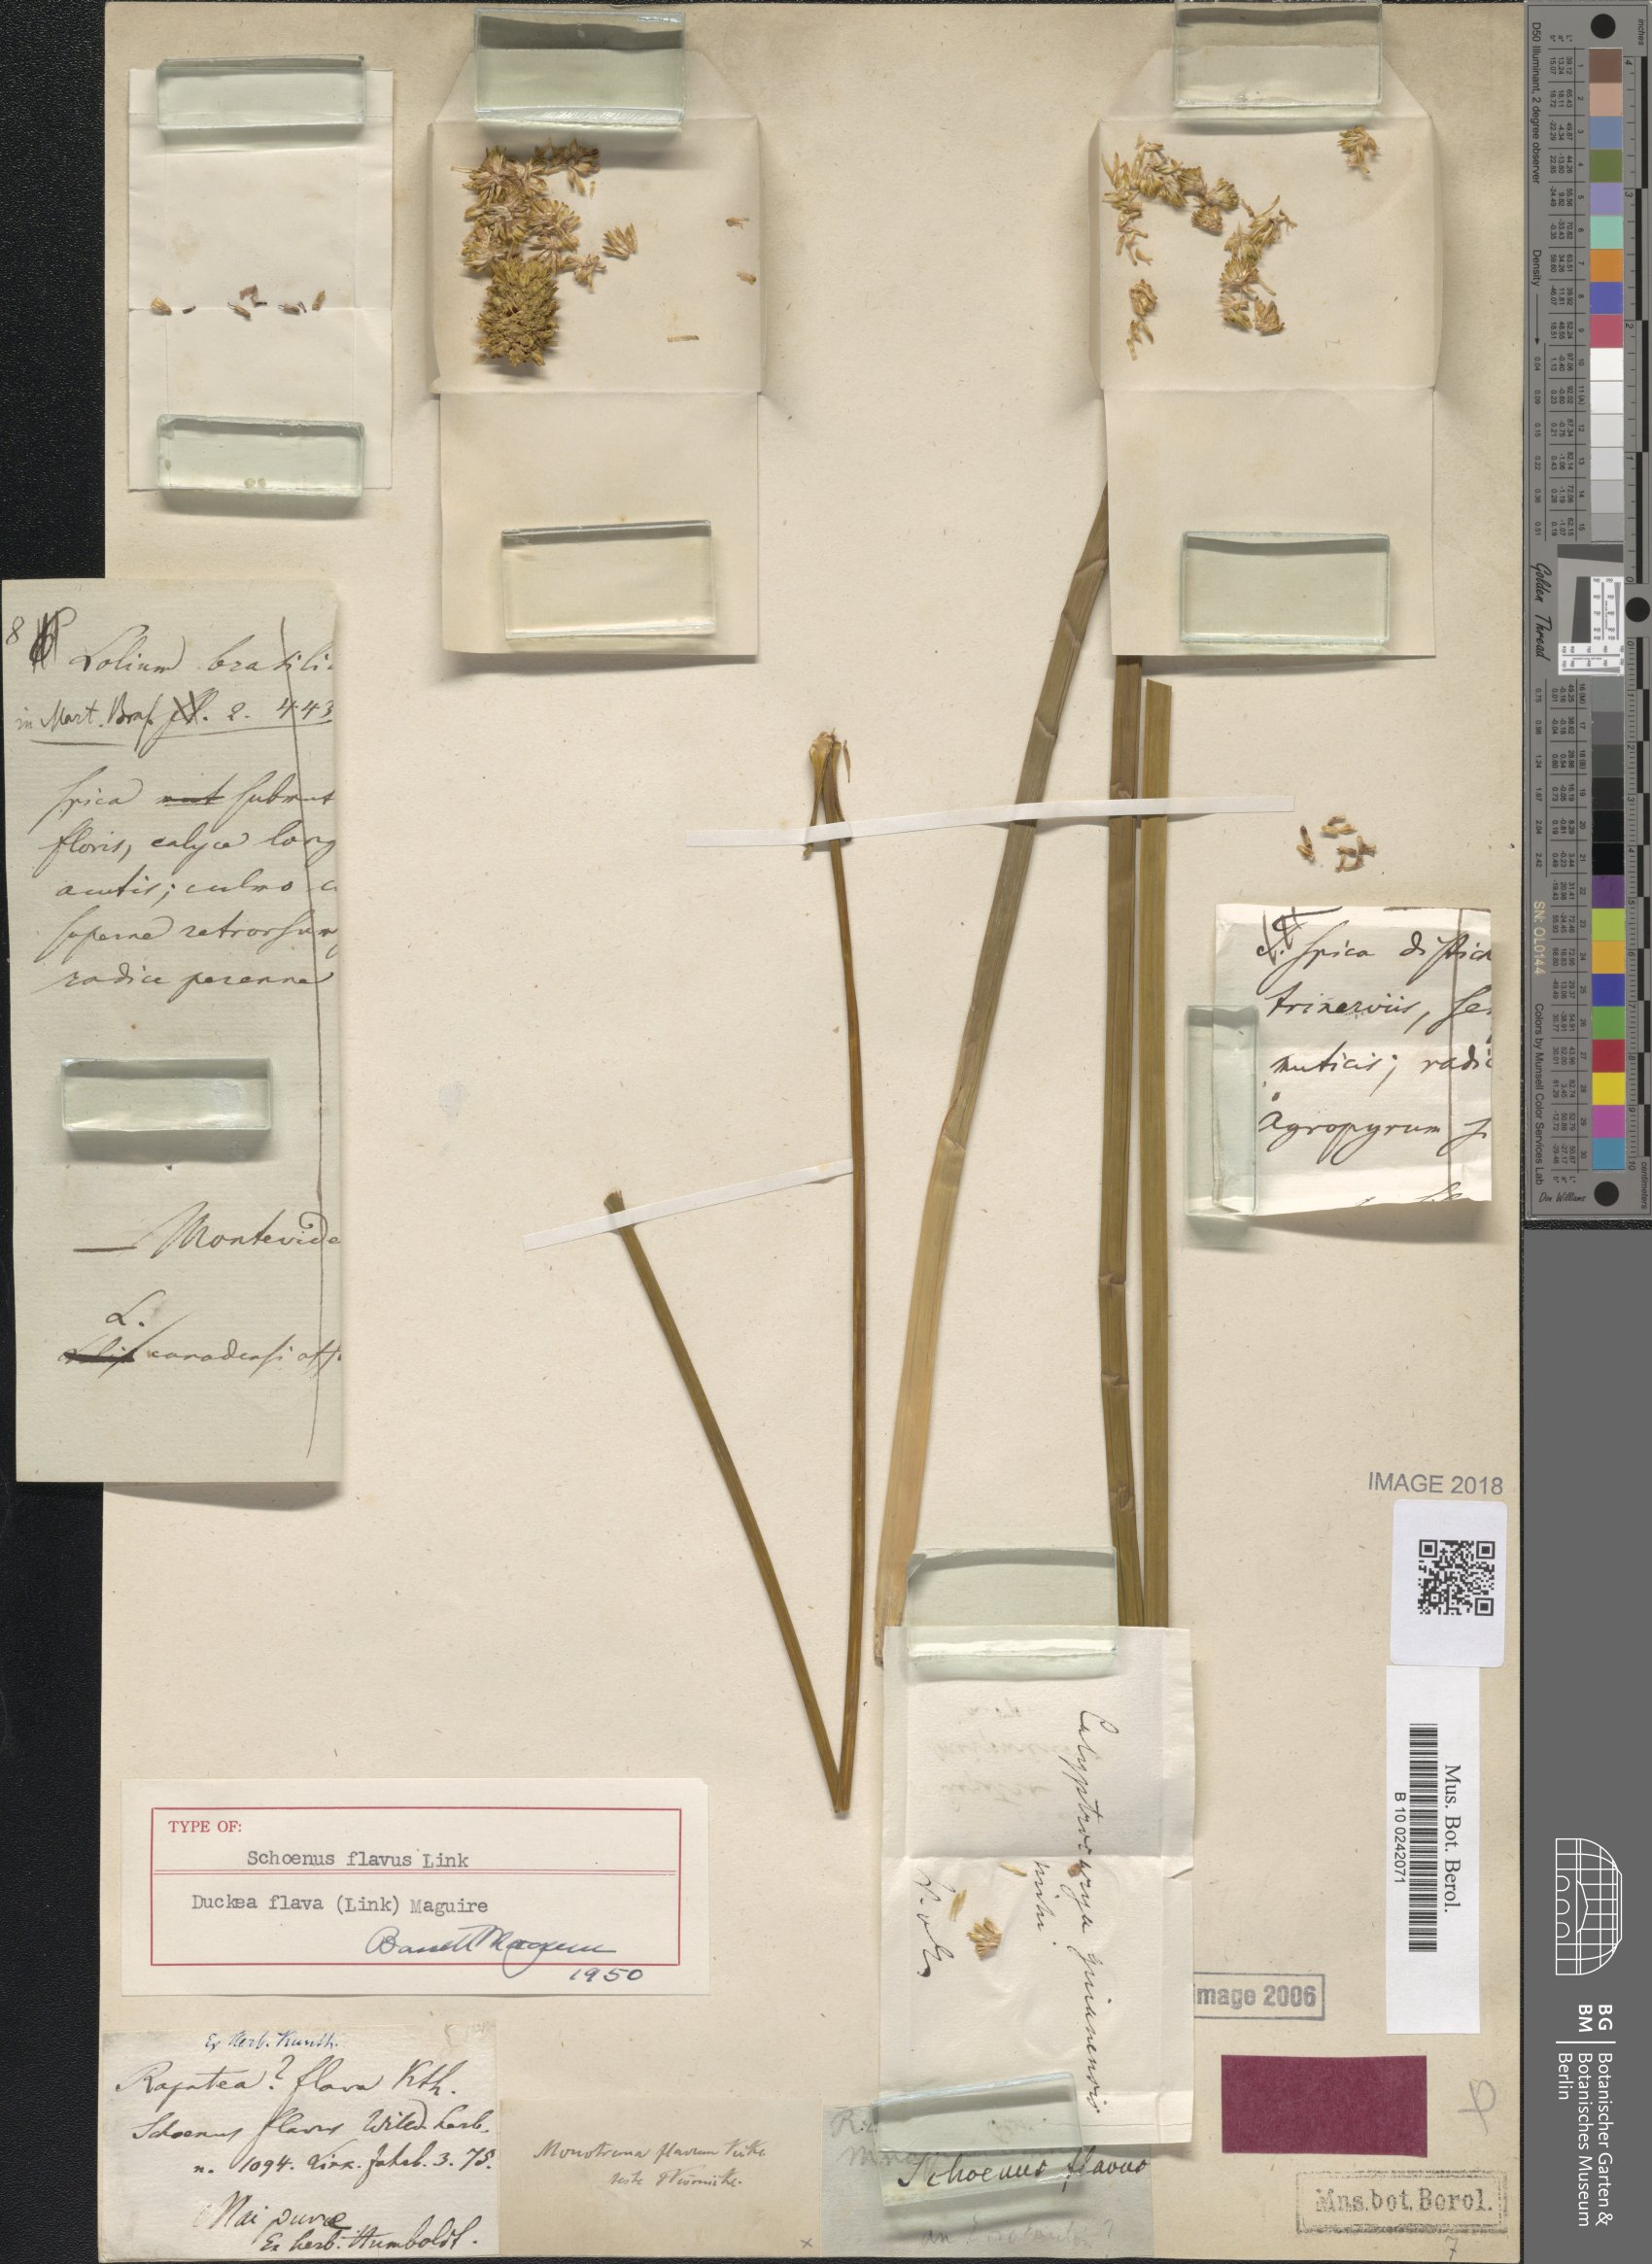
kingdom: Plantae
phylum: Tracheophyta
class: Liliopsida
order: Poales
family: Rapateaceae
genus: Duckea
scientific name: Duckea flava
